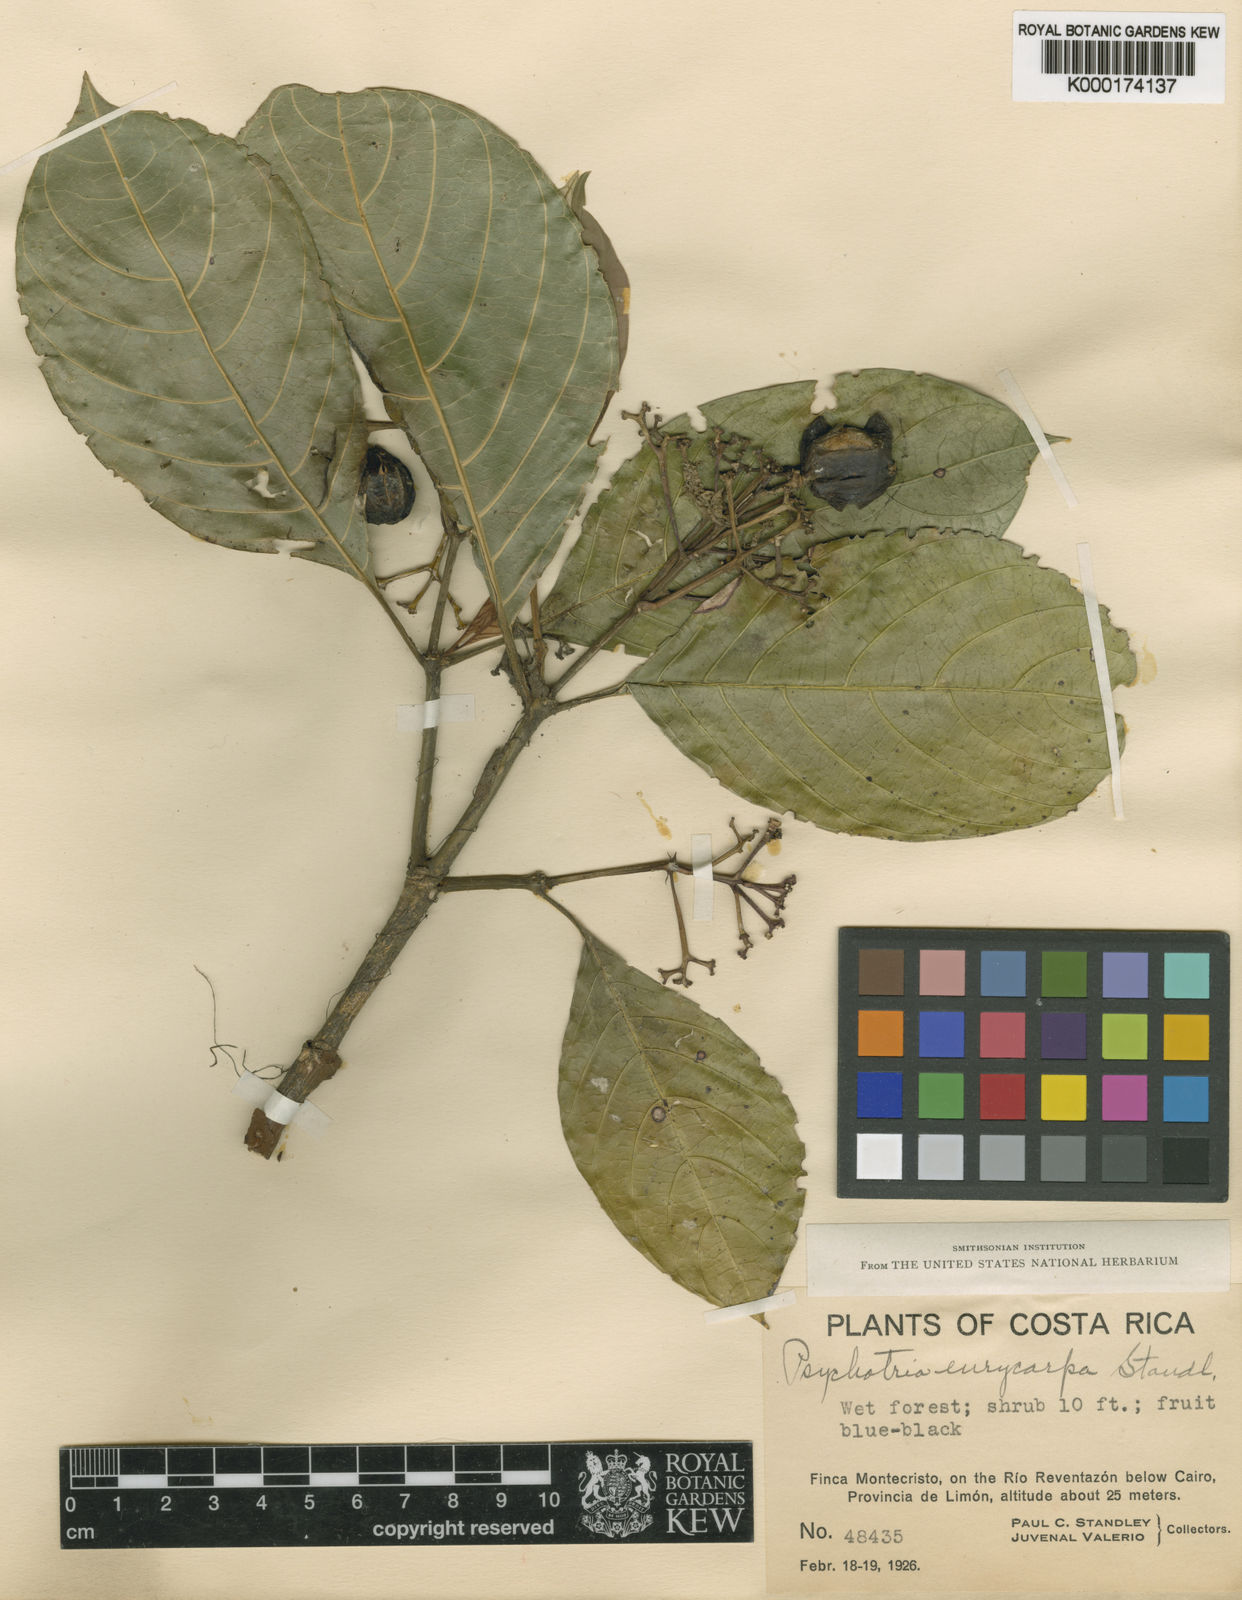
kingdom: Plantae
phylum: Tracheophyta
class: Magnoliopsida
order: Gentianales
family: Rubiaceae
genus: Palicourea
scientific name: Palicourea eurycarpa
